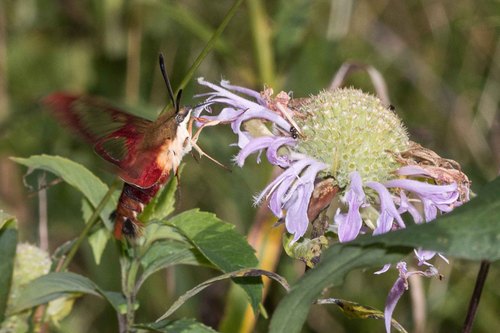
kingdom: Animalia
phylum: Arthropoda
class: Insecta
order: Lepidoptera
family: Sphingidae
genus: Hemaris
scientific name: Hemaris thysbe
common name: Common clear-wing
